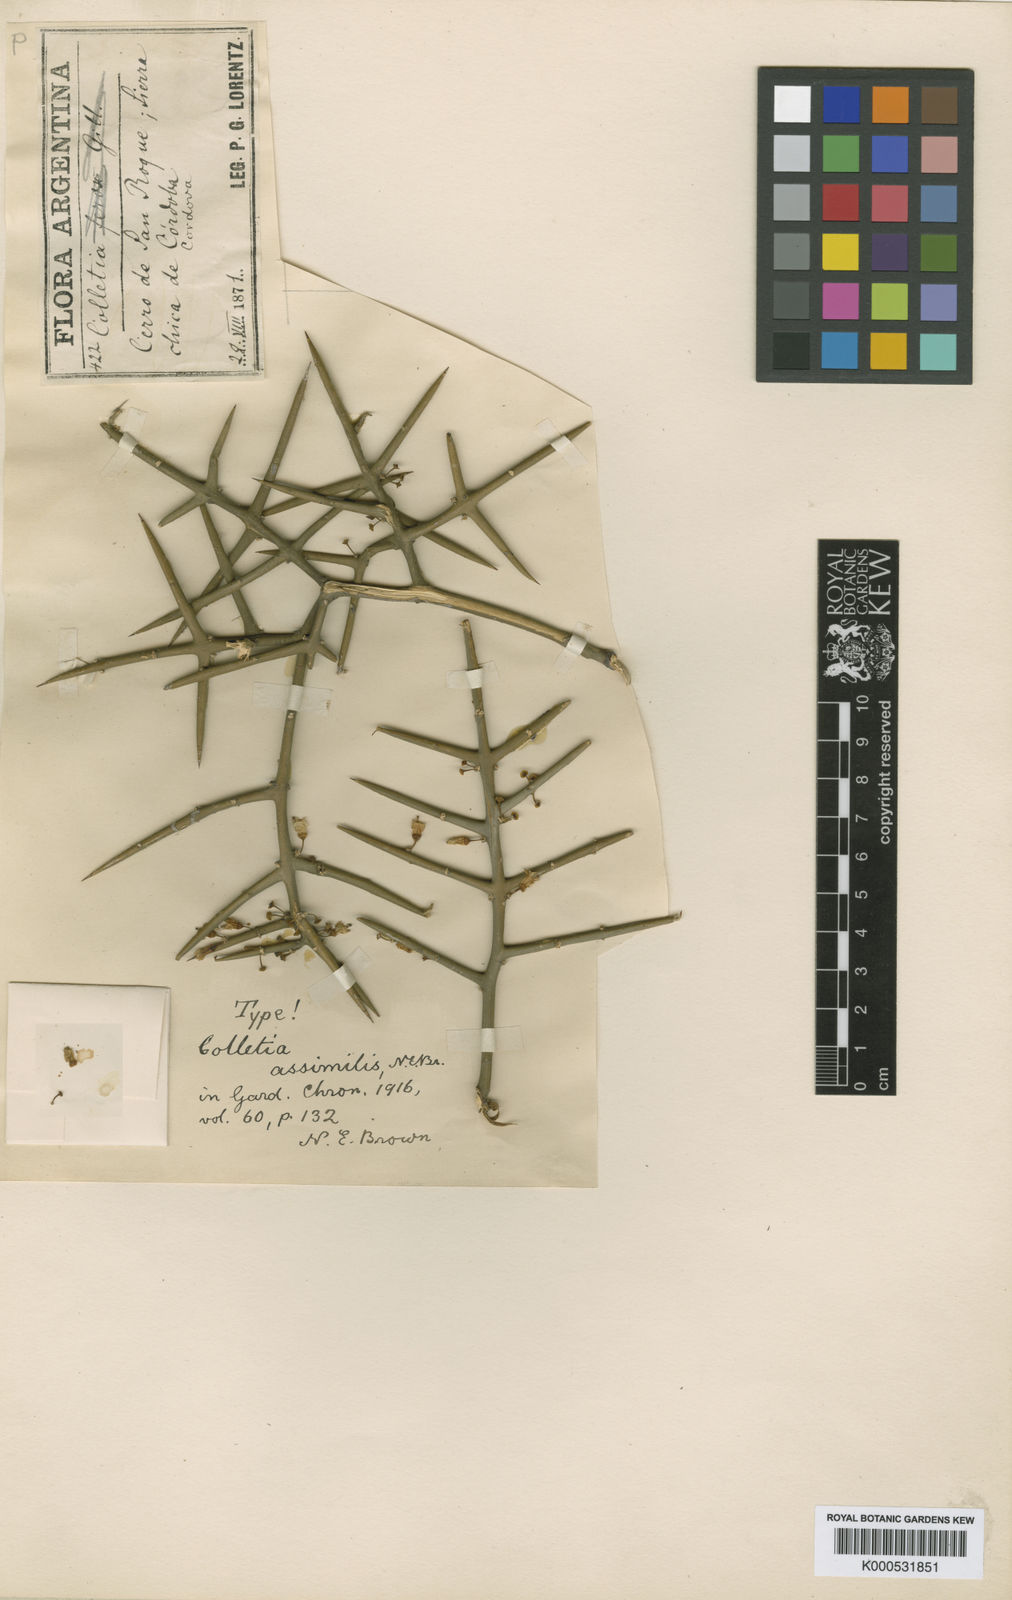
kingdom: Plantae
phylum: Tracheophyta
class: Magnoliopsida
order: Rosales
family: Rhamnaceae
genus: Colletia
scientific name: Colletia spinosissima
